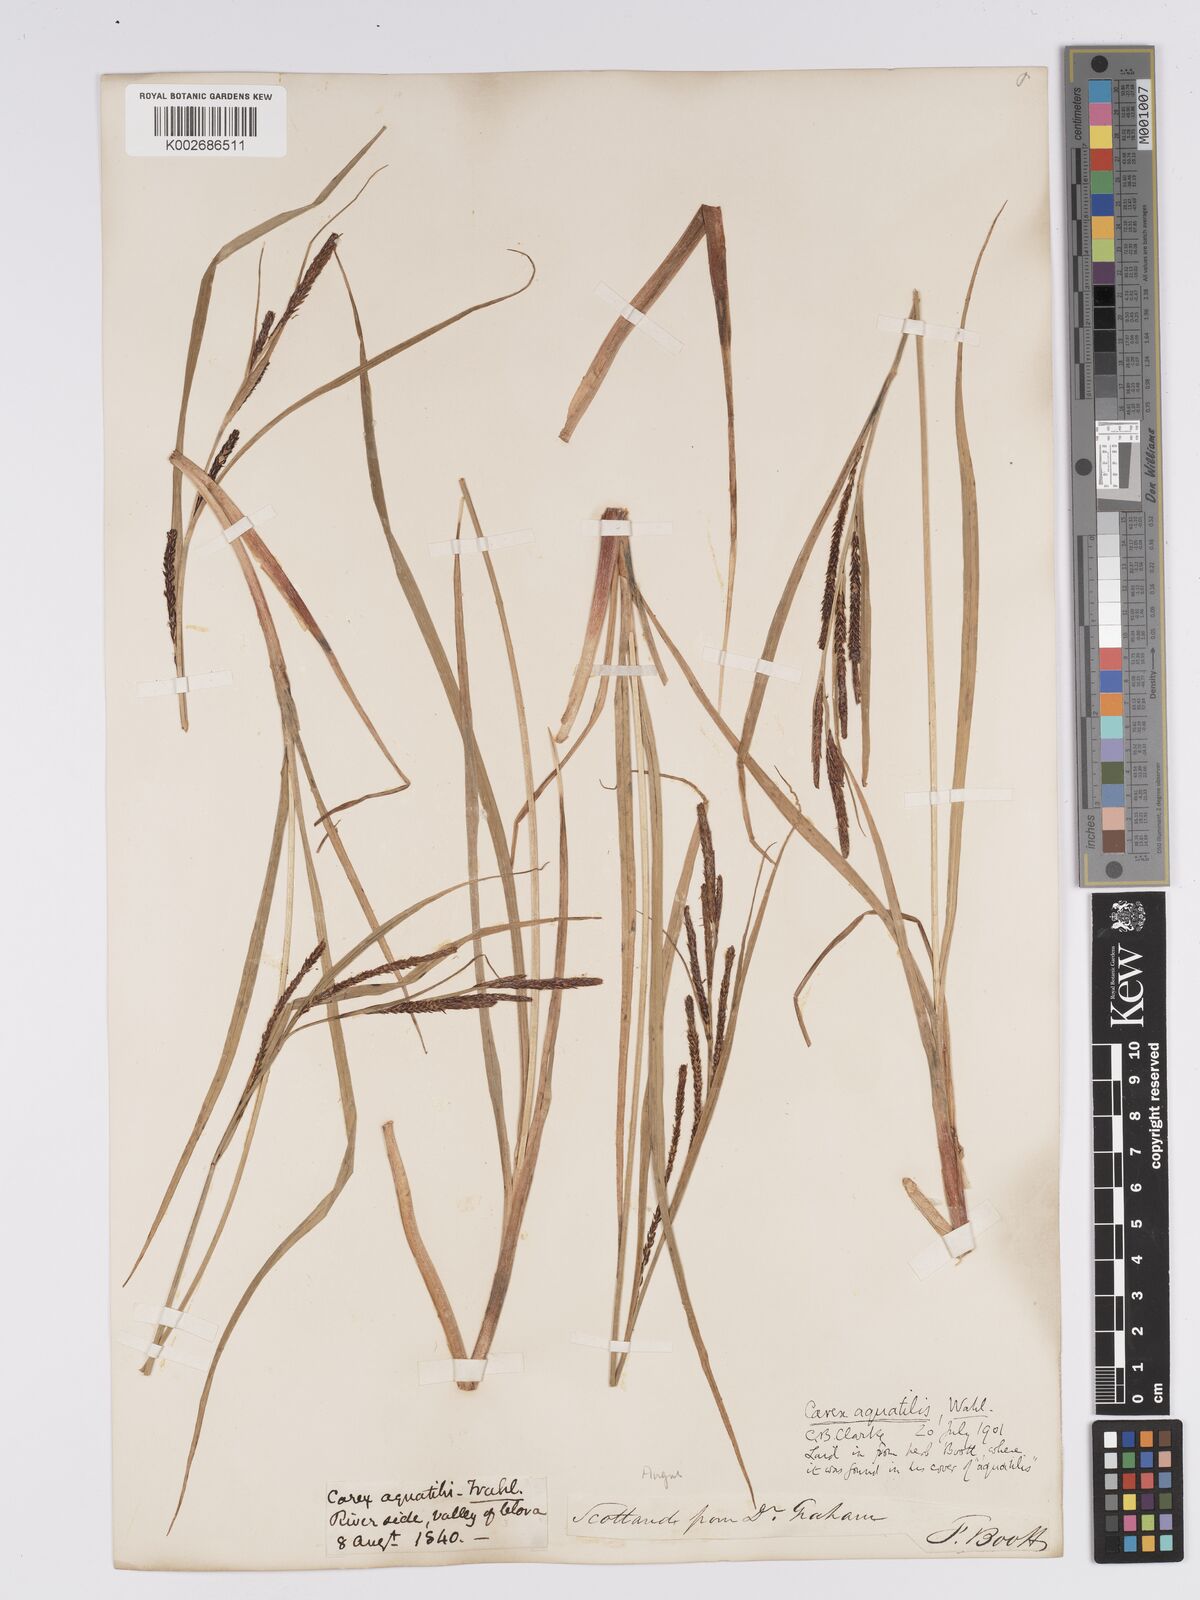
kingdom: Plantae
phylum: Tracheophyta
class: Liliopsida
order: Poales
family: Cyperaceae
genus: Carex
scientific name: Carex aquatilis
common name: Water sedge
